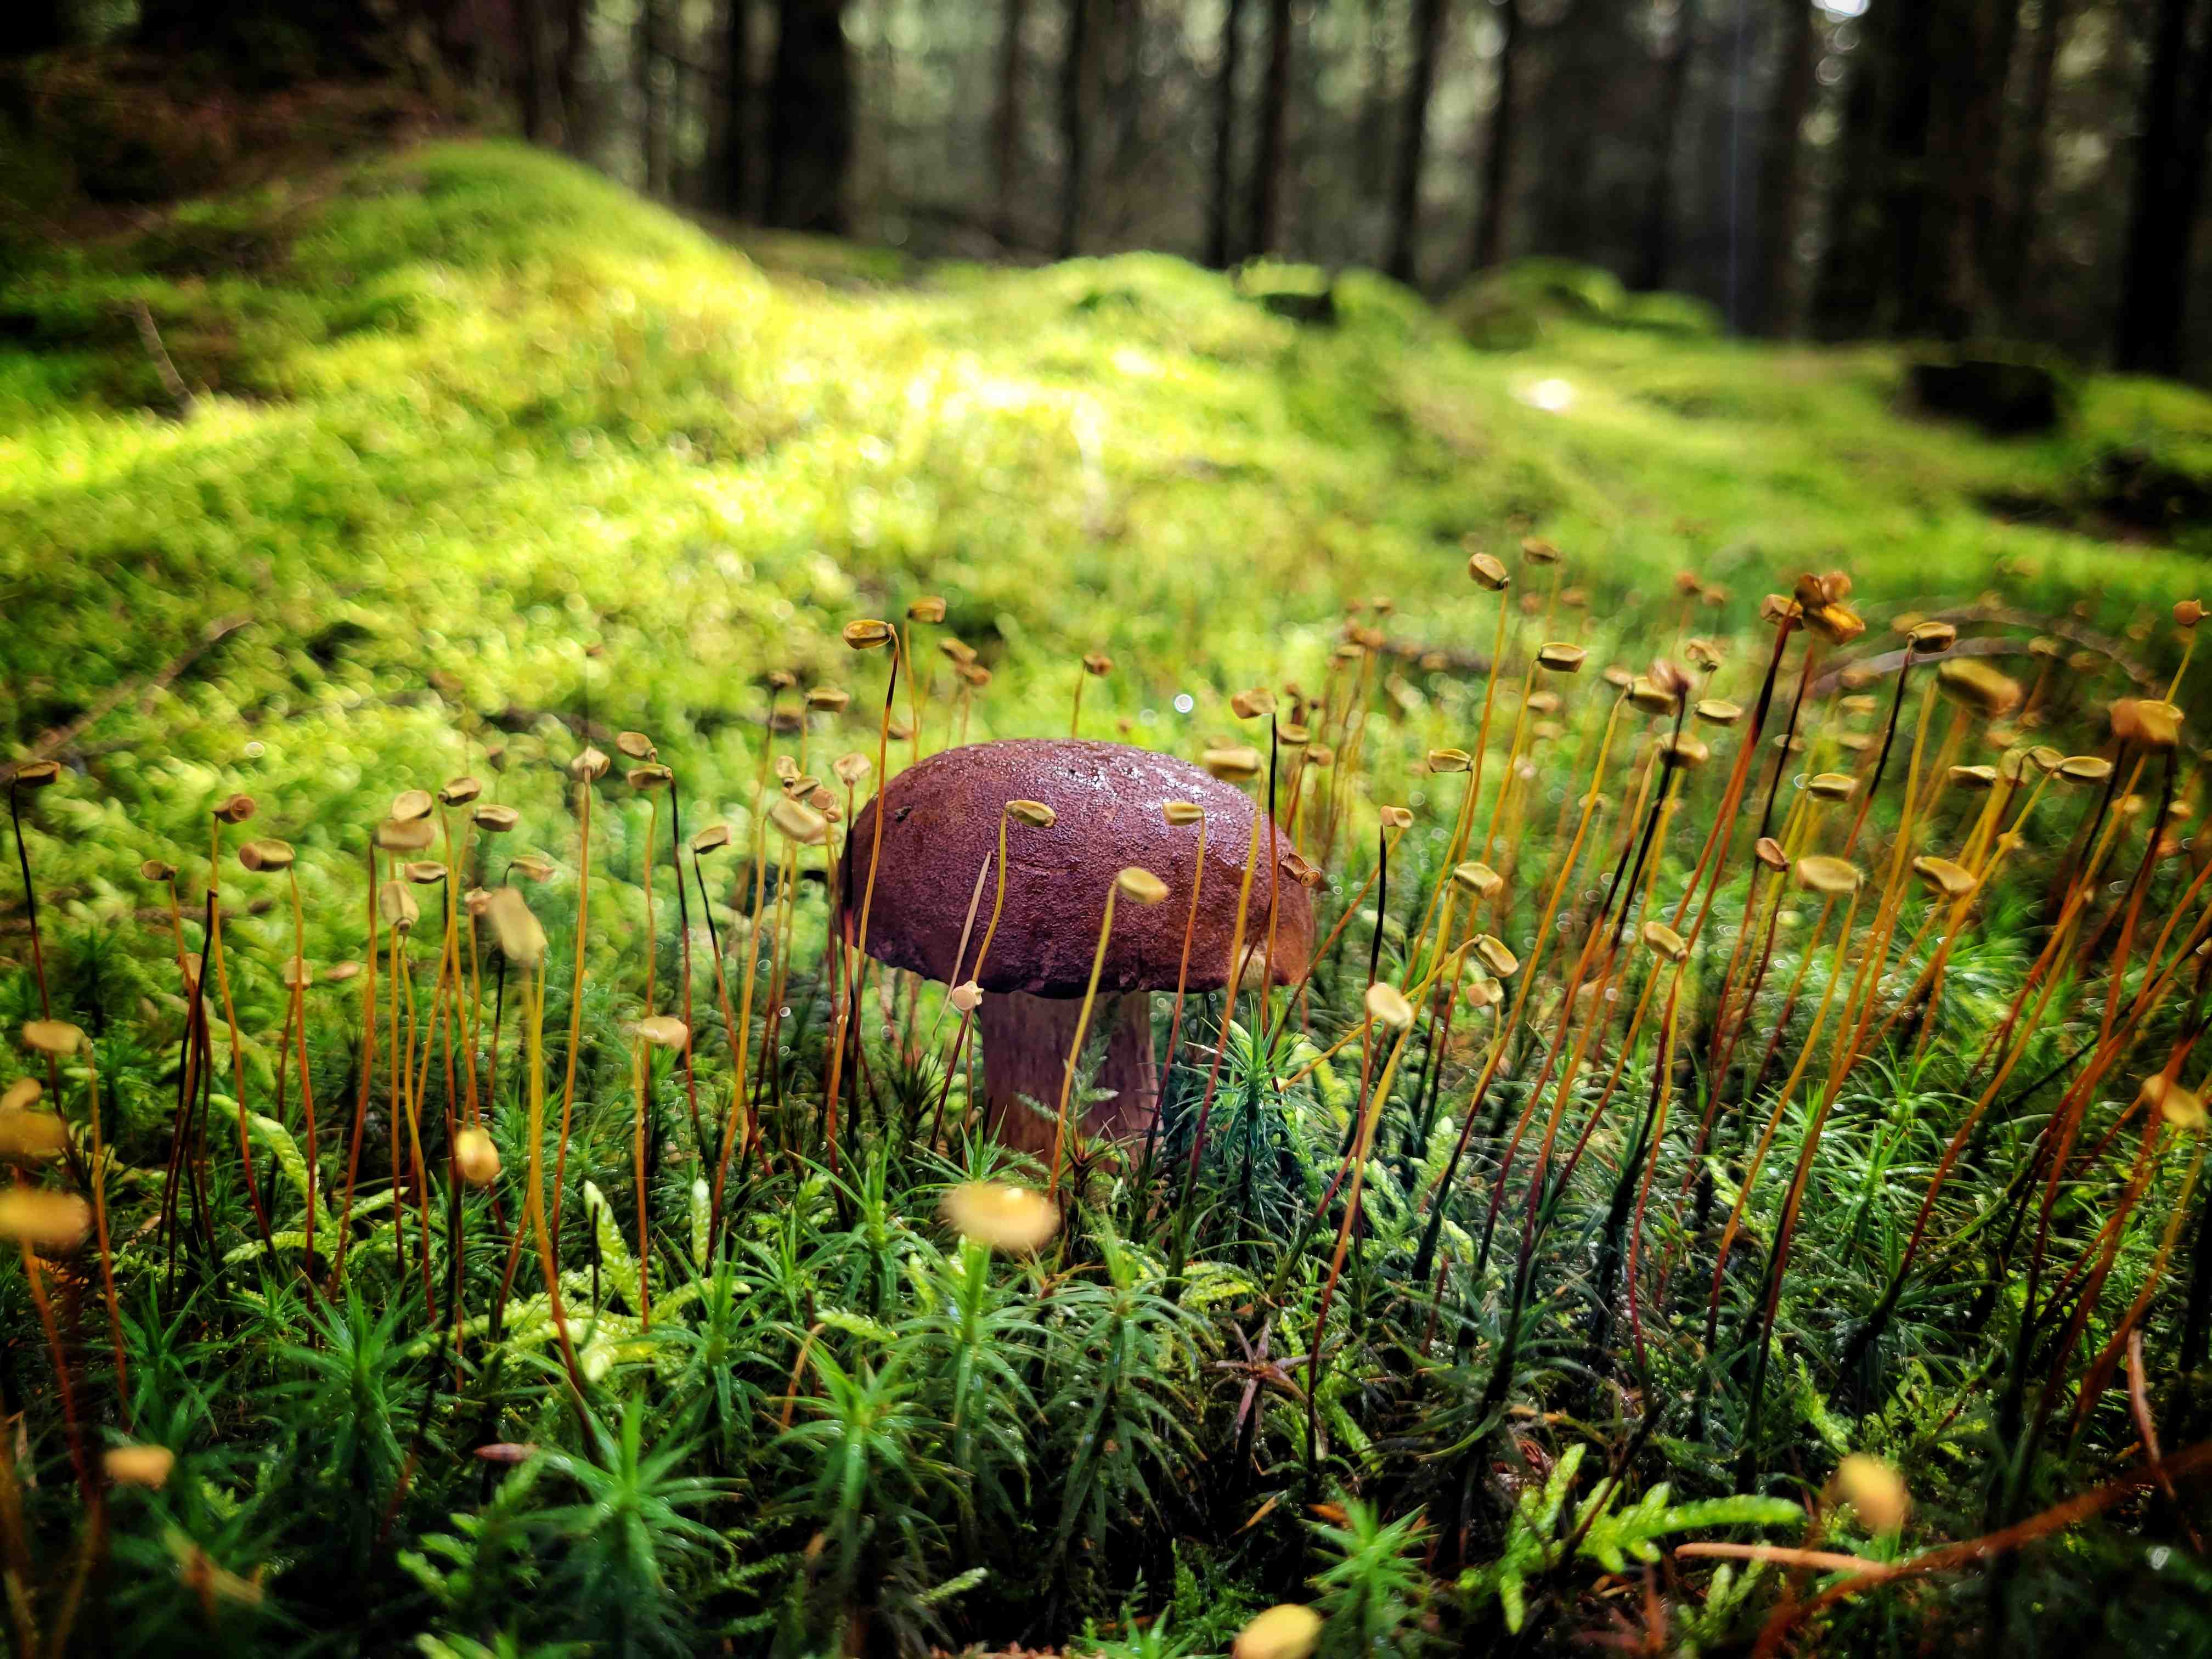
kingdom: Fungi
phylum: Basidiomycota
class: Agaricomycetes
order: Boletales
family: Boletaceae
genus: Imleria
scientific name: Imleria badia
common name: brunstokket rørhat
